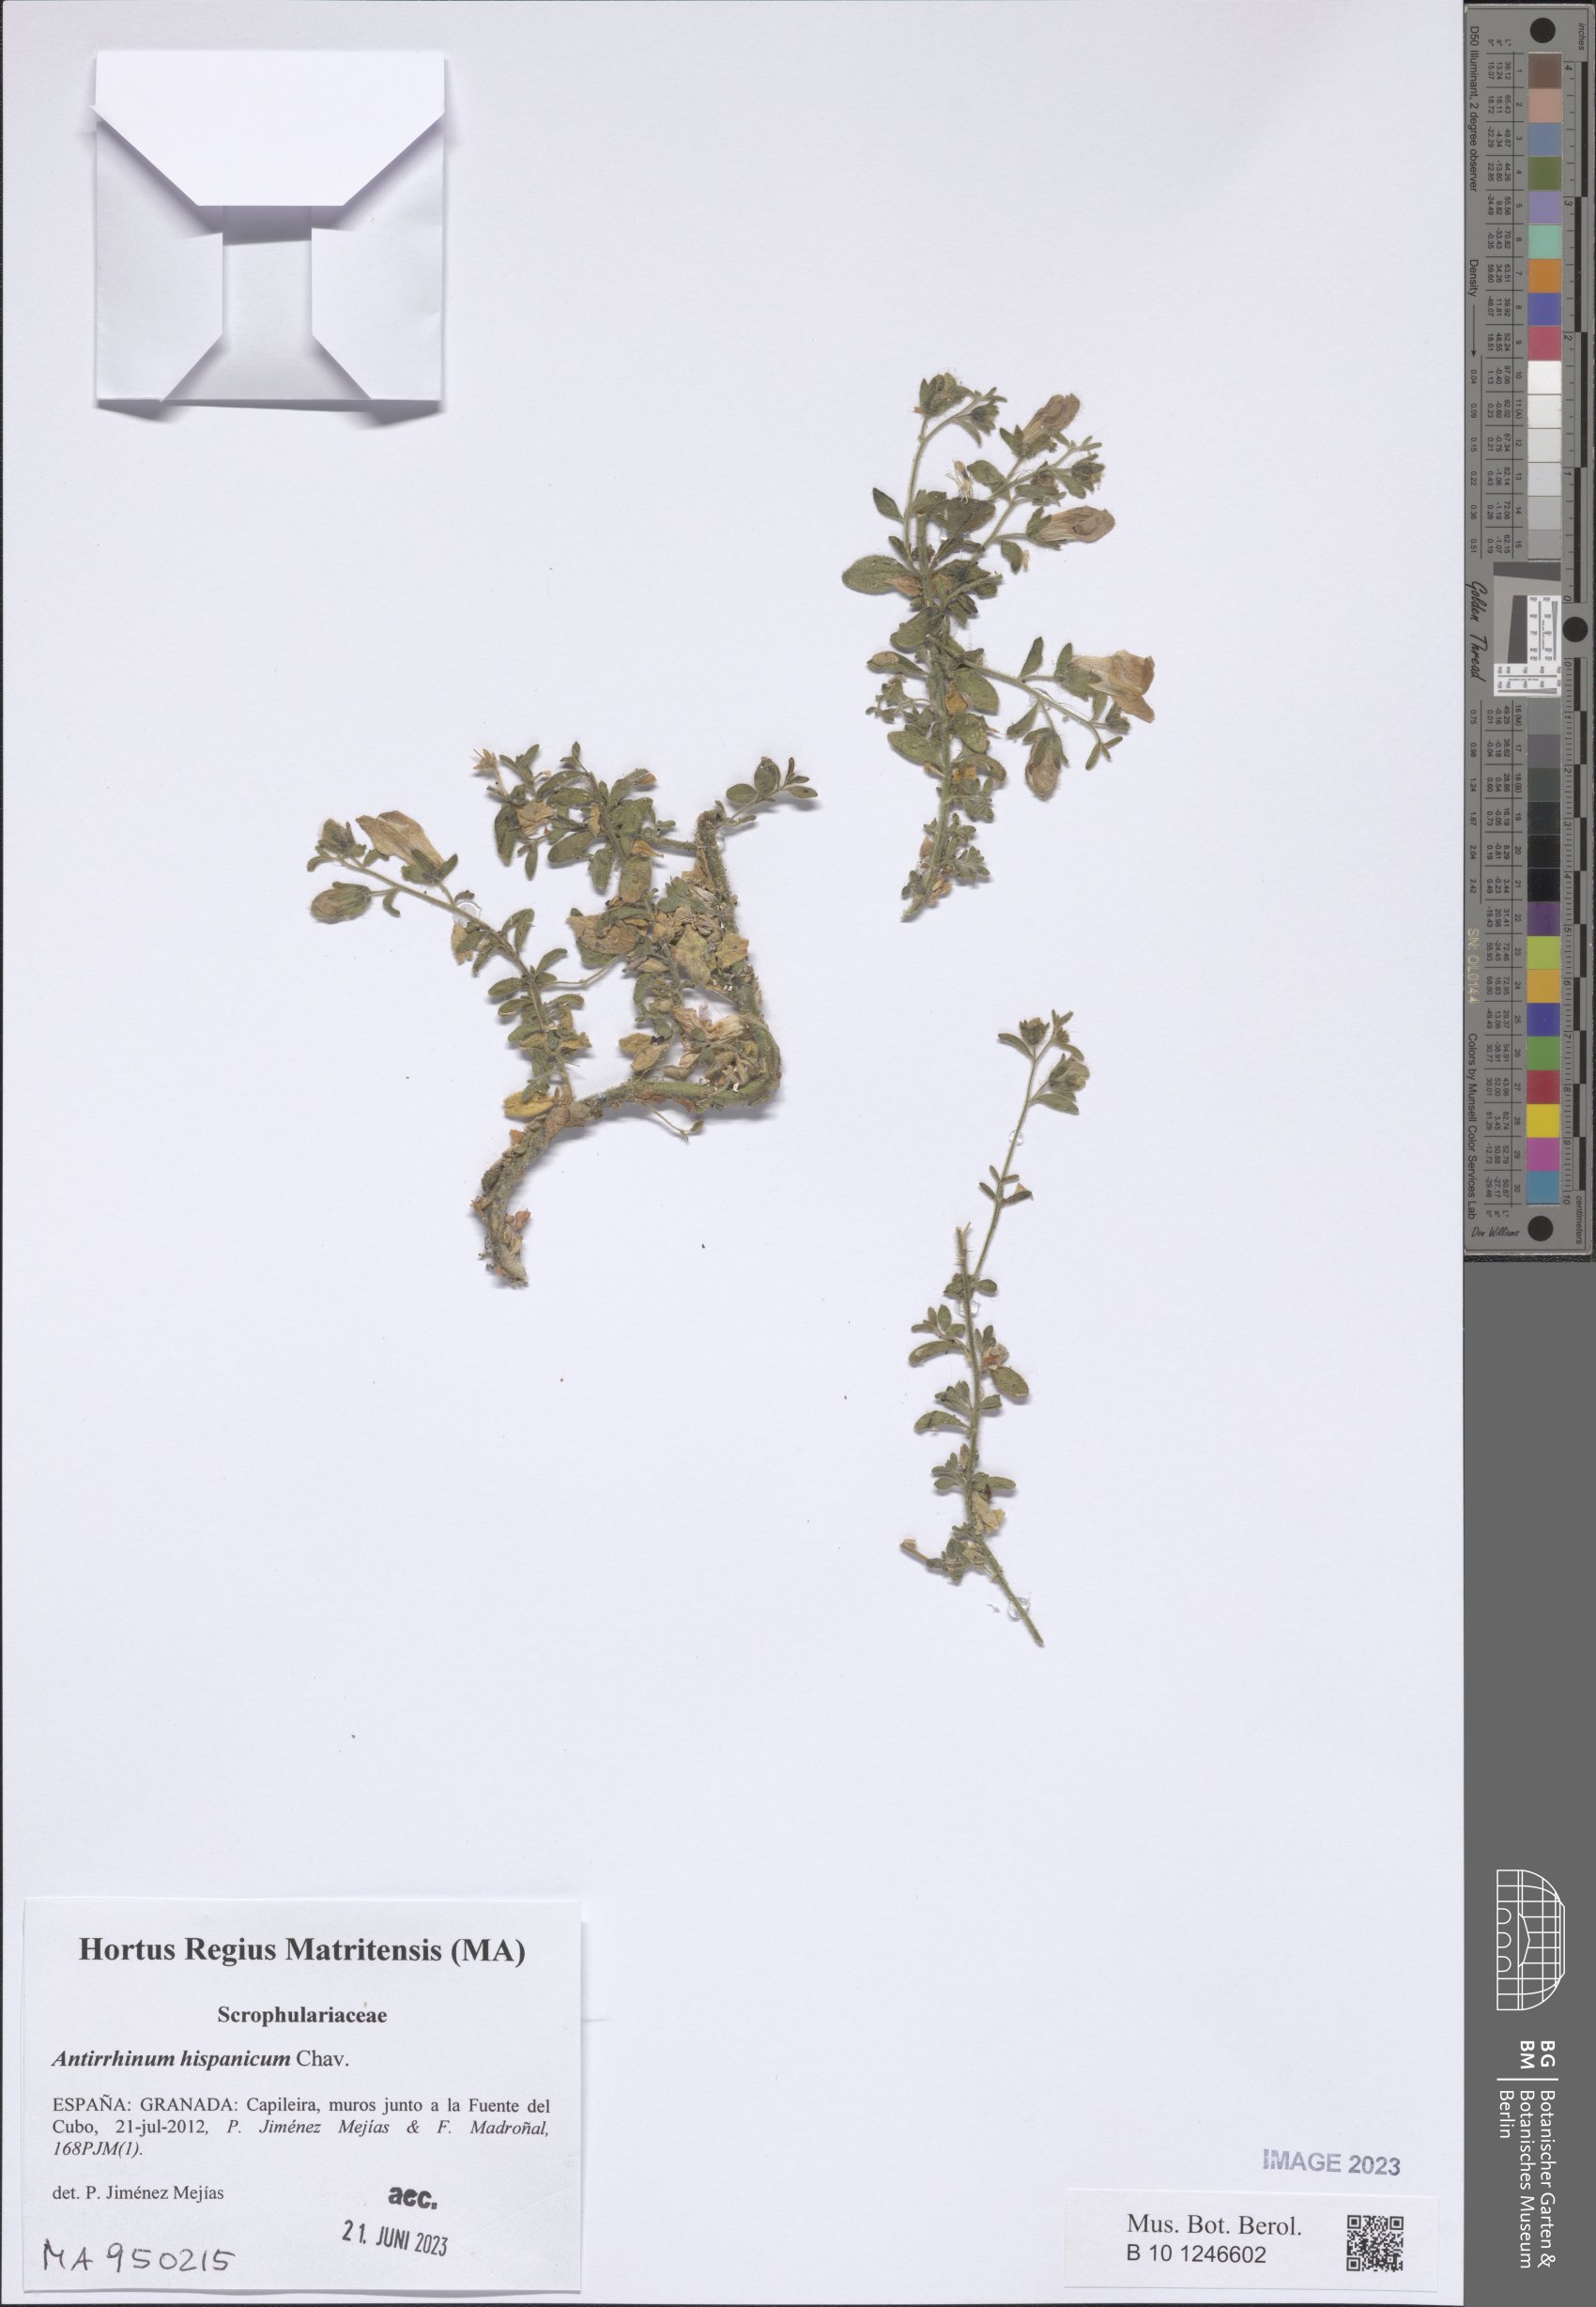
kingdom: Plantae
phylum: Tracheophyta
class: Magnoliopsida
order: Lamiales
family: Plantaginaceae
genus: Antirrhinum
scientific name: Antirrhinum hispanicum
